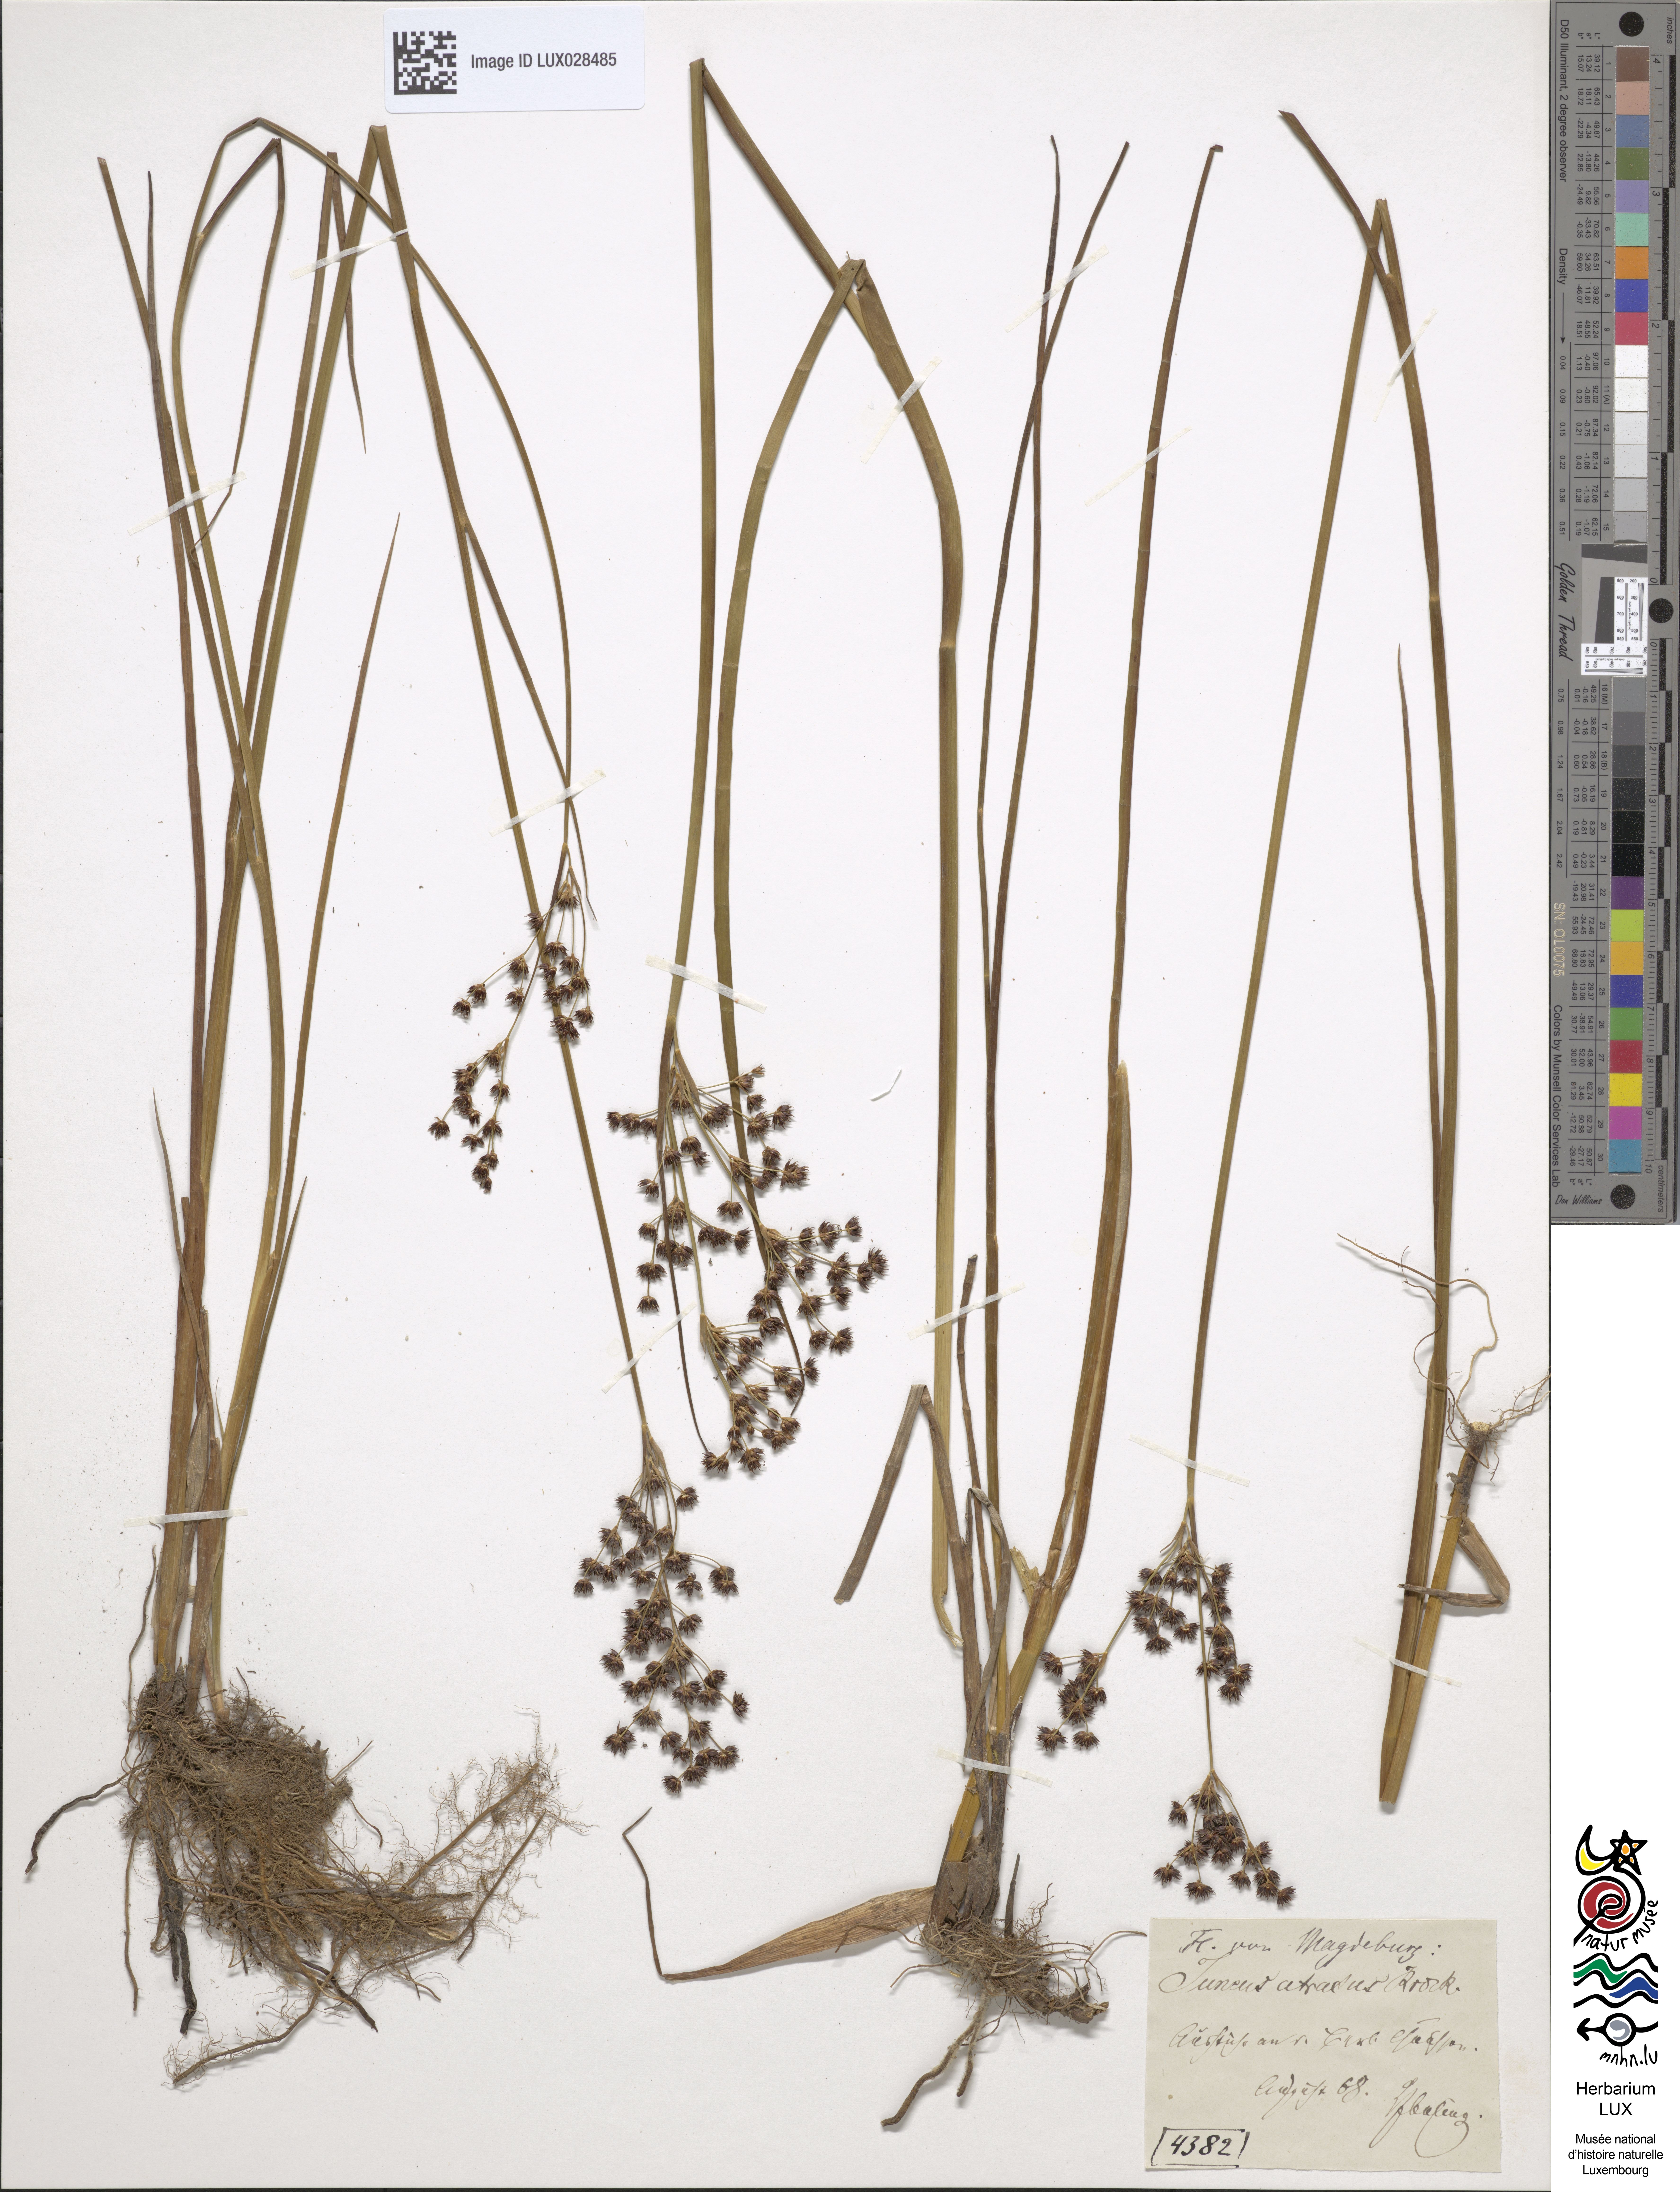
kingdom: Plantae
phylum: Tracheophyta
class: Liliopsida
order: Poales
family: Juncaceae
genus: Juncus
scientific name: Juncus atratus
